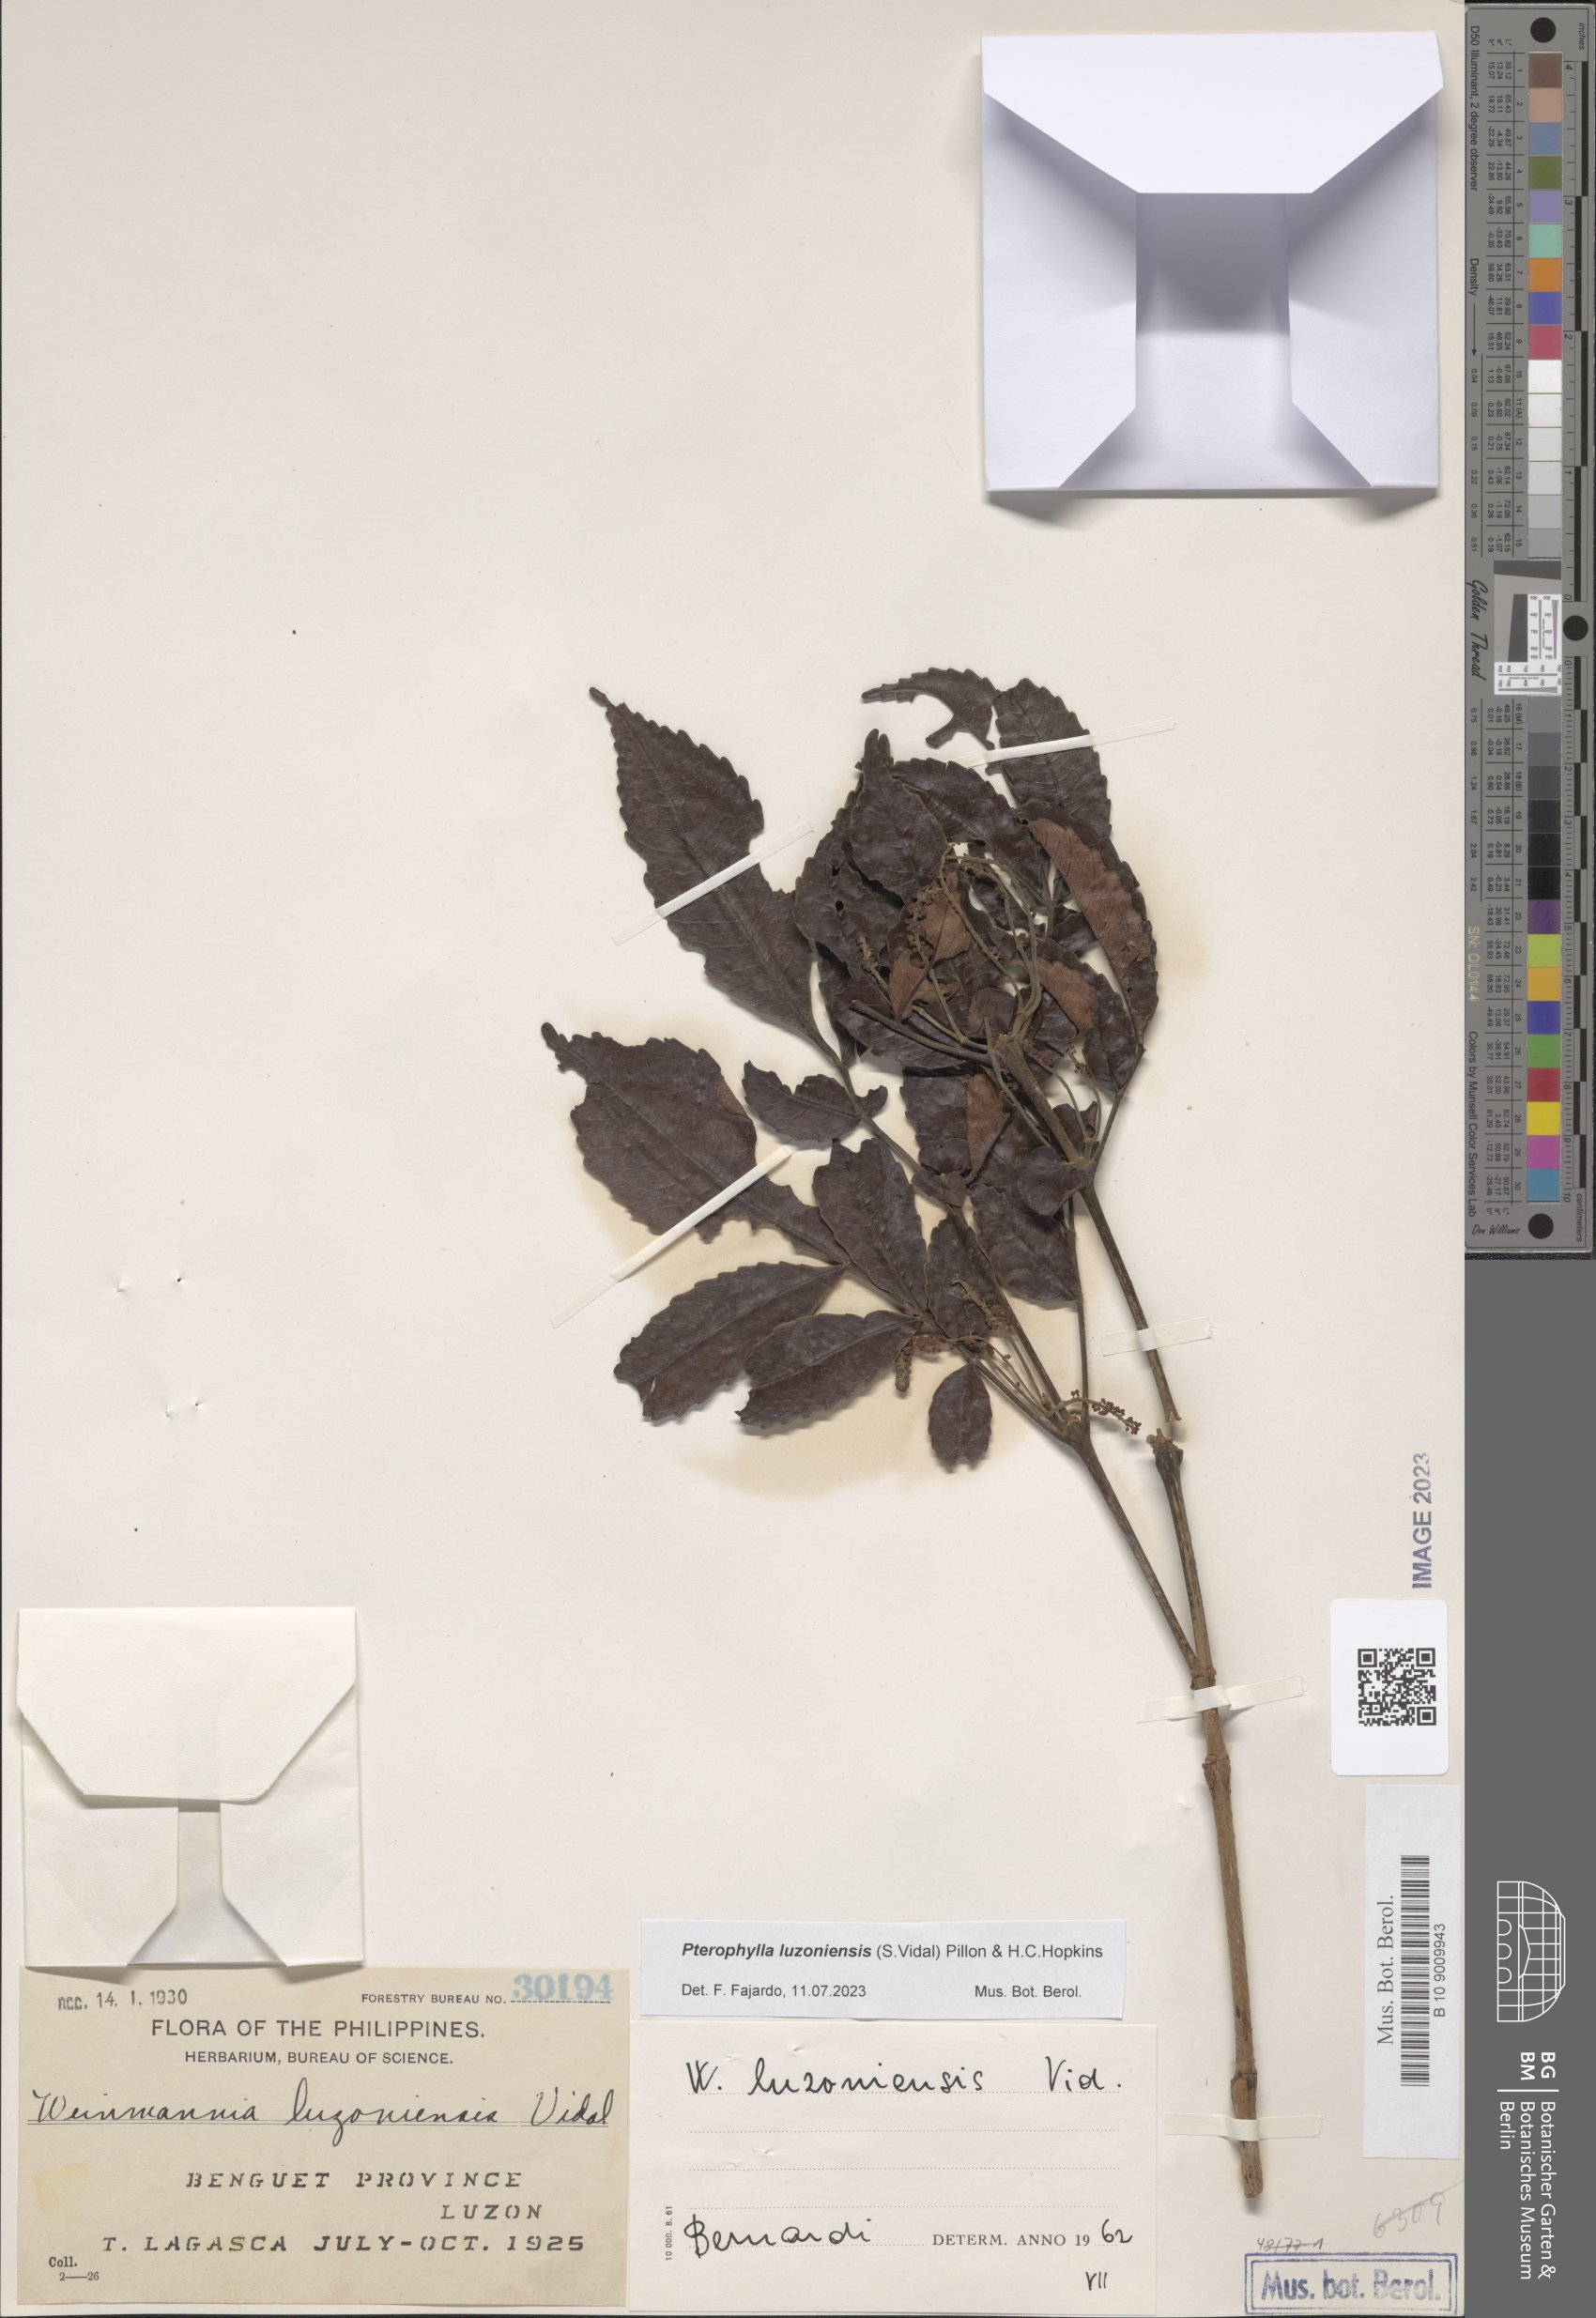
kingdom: Plantae
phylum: Tracheophyta
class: Magnoliopsida
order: Oxalidales
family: Cunoniaceae
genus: Pterophylla
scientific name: Pterophylla luzoniensis
